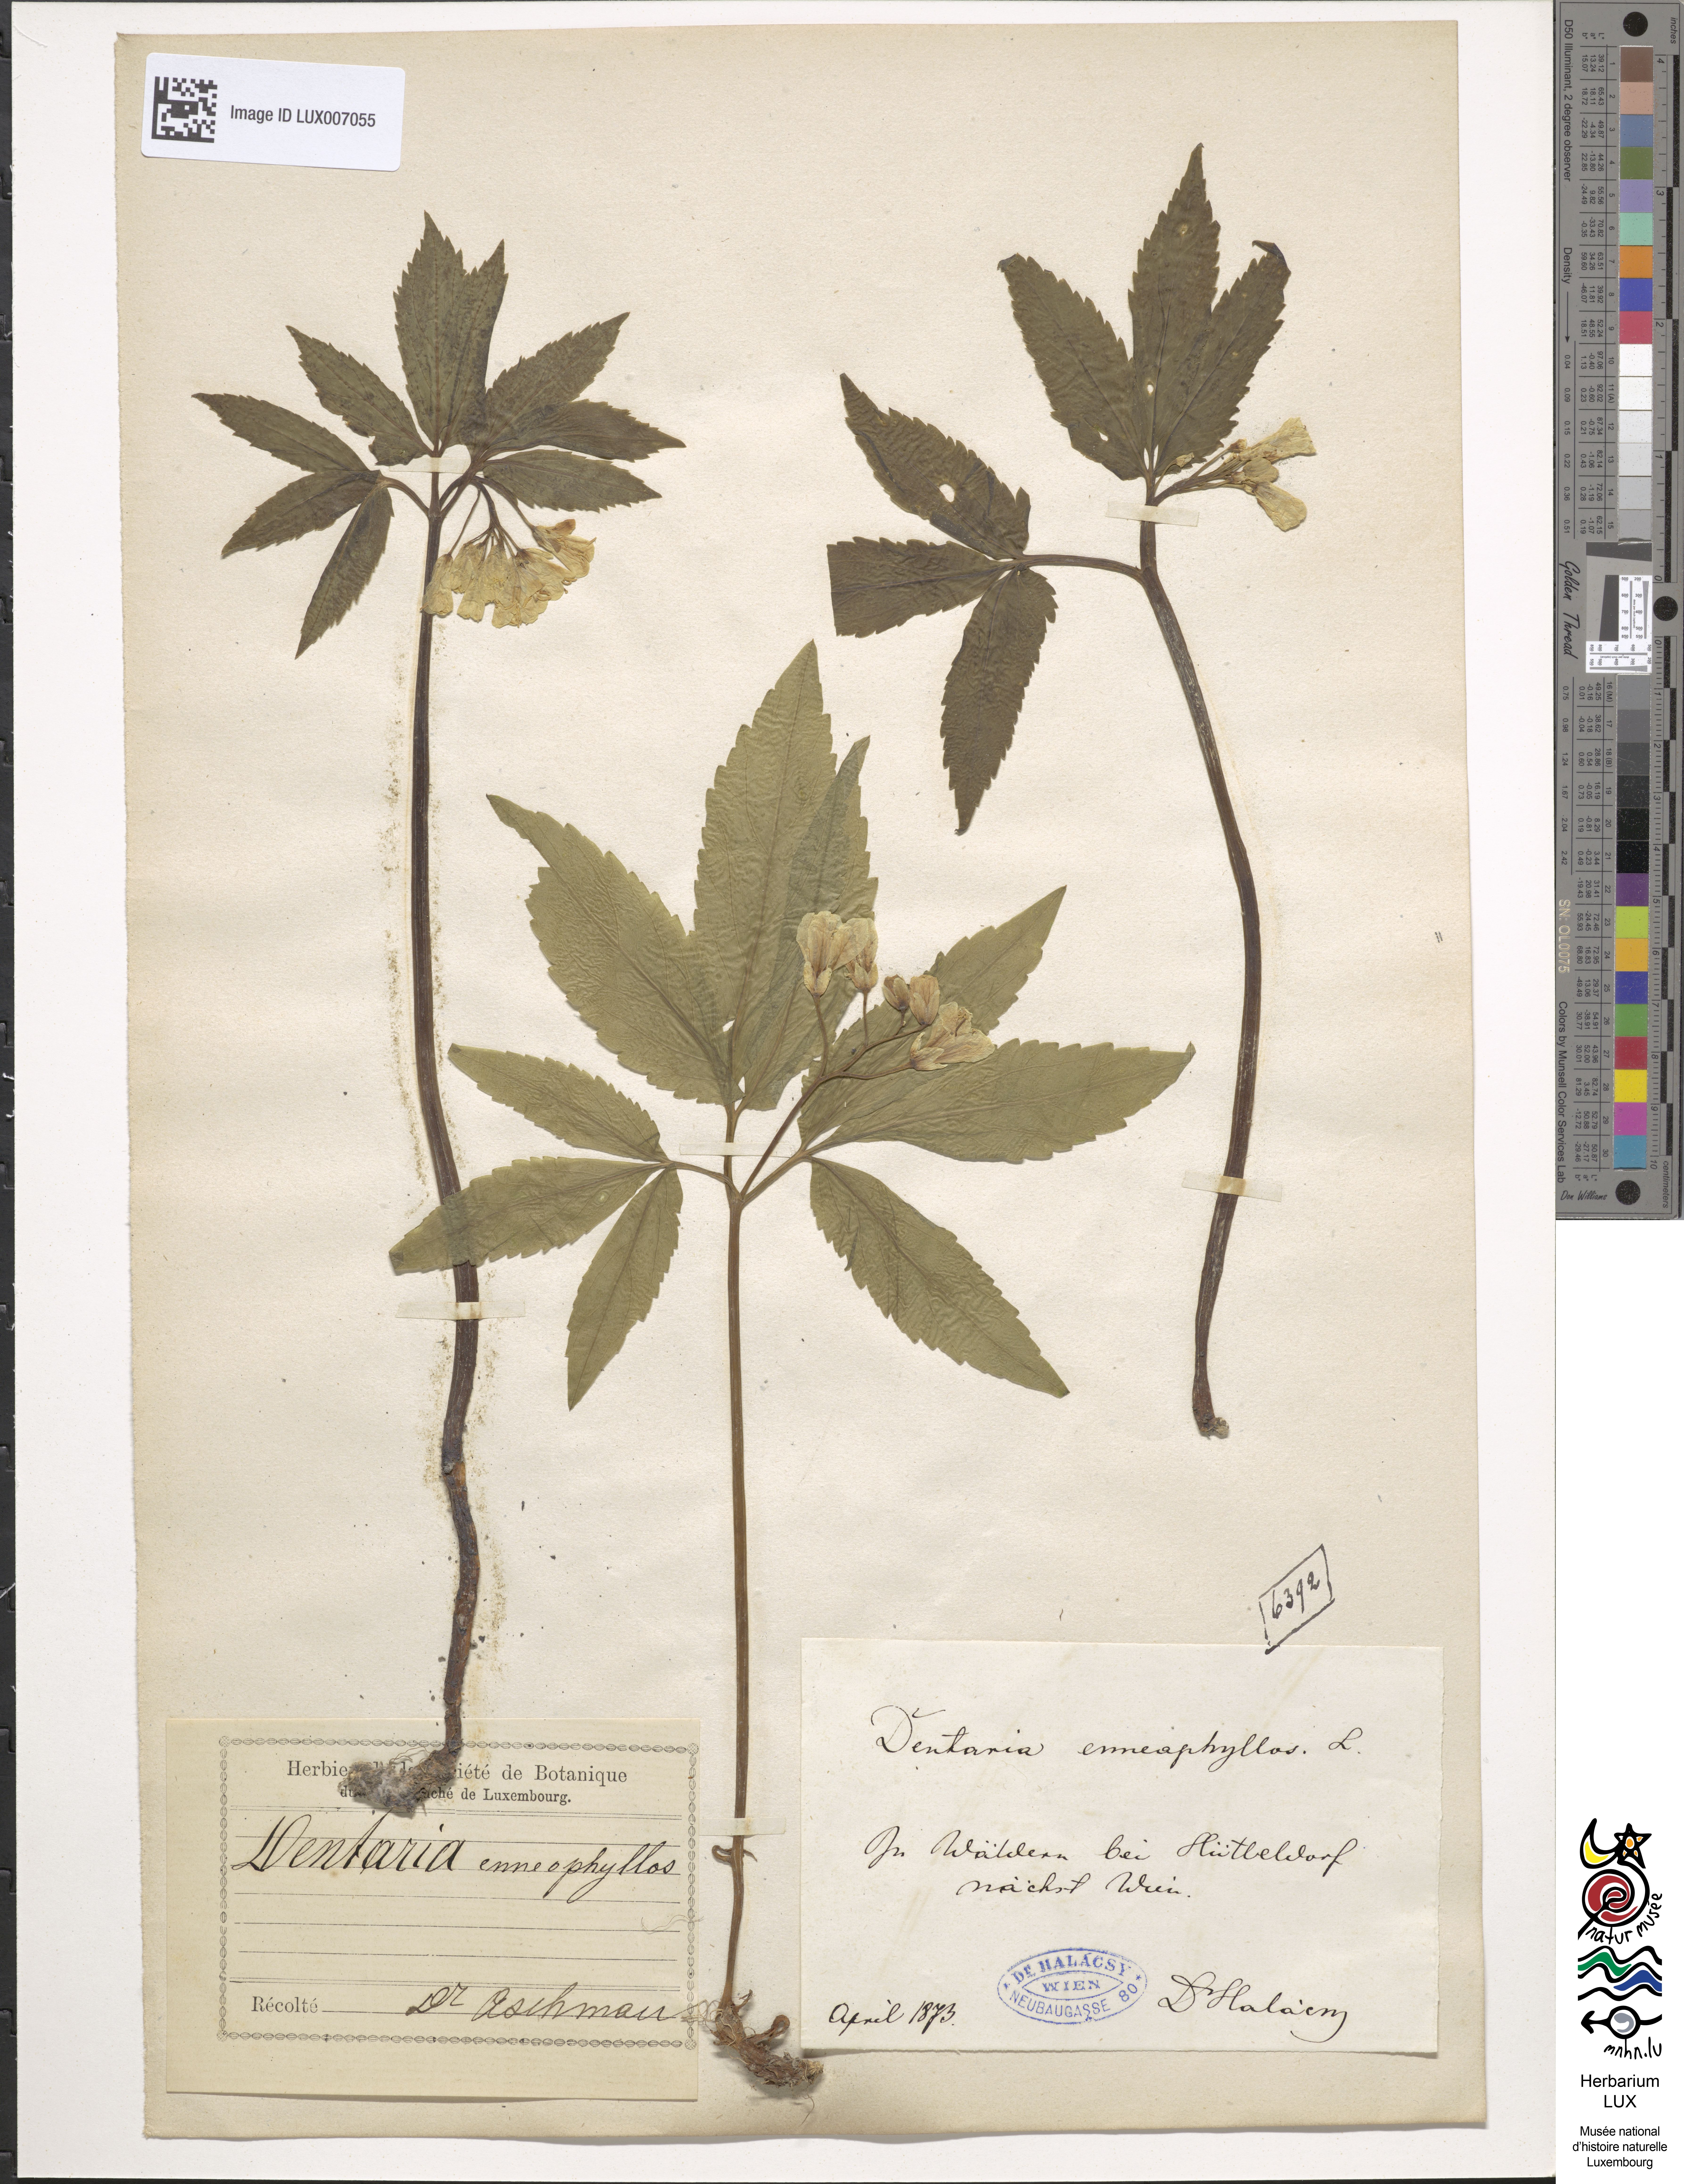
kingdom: Plantae
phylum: Tracheophyta
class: Magnoliopsida
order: Brassicales
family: Brassicaceae
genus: Cardamine
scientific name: Cardamine enneaphyllos
